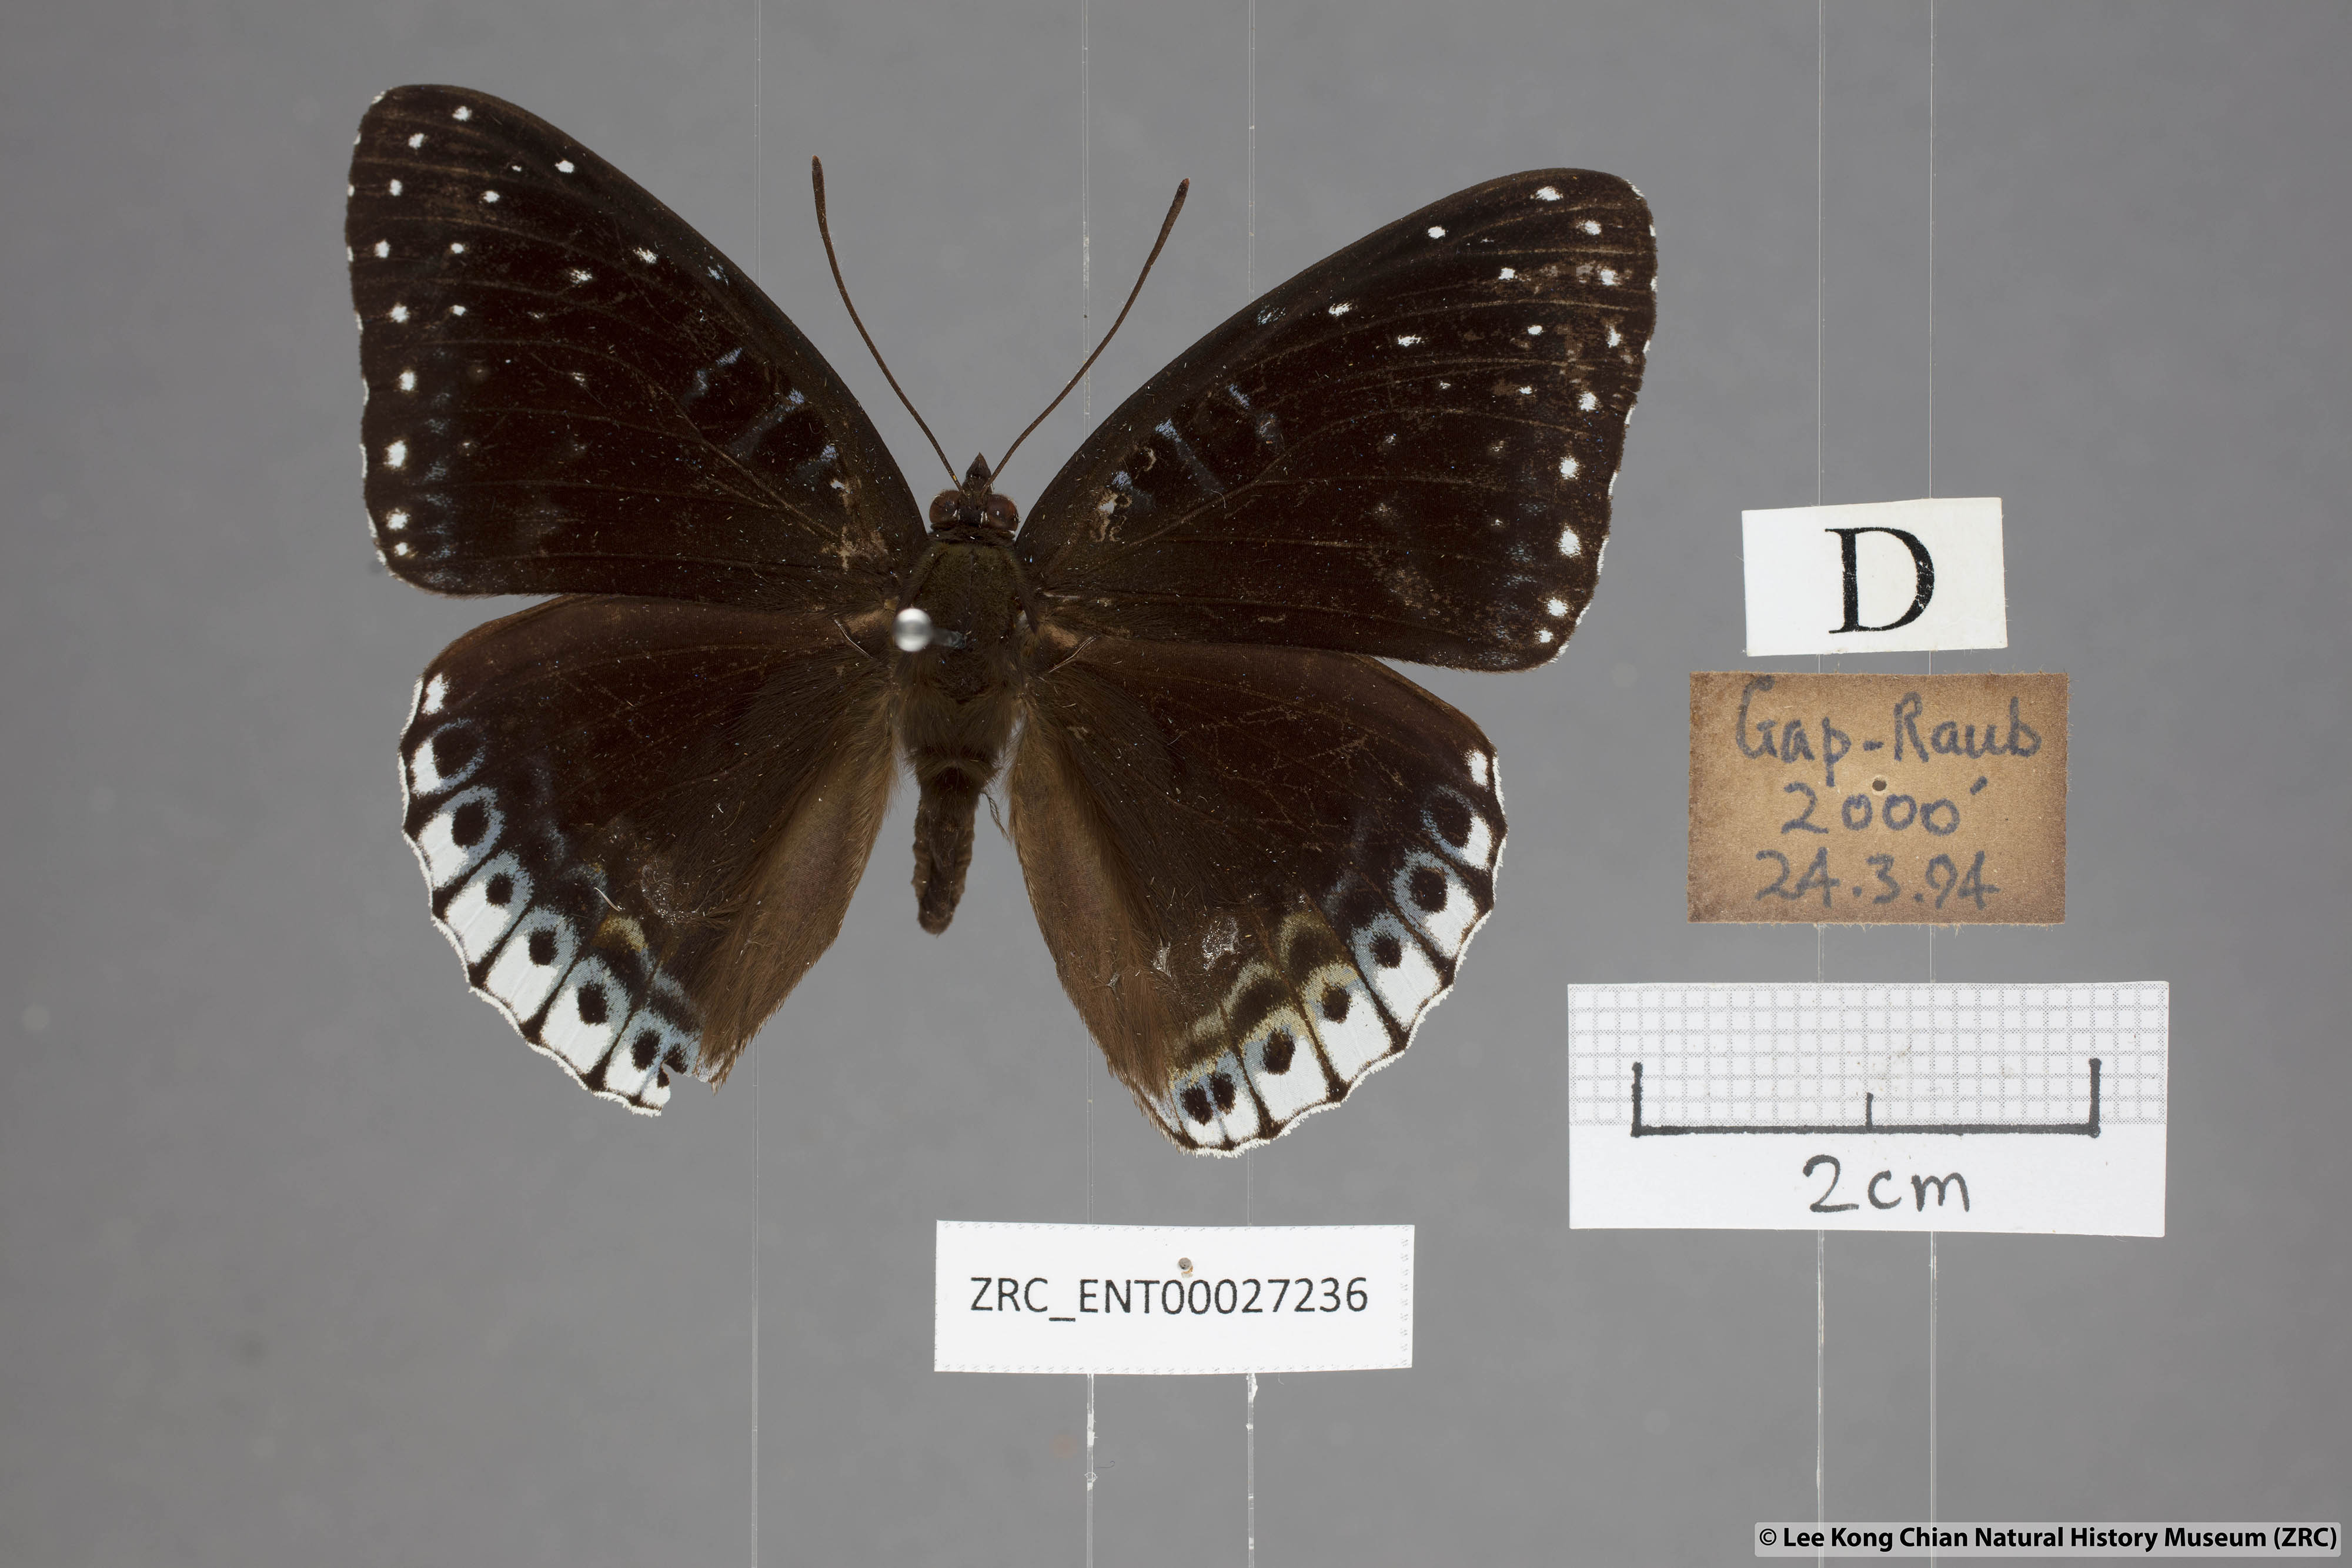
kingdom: Animalia
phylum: Arthropoda
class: Insecta
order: Lepidoptera
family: Nymphalidae
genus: Stibochiona
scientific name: Stibochiona nicea
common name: Popinjay
